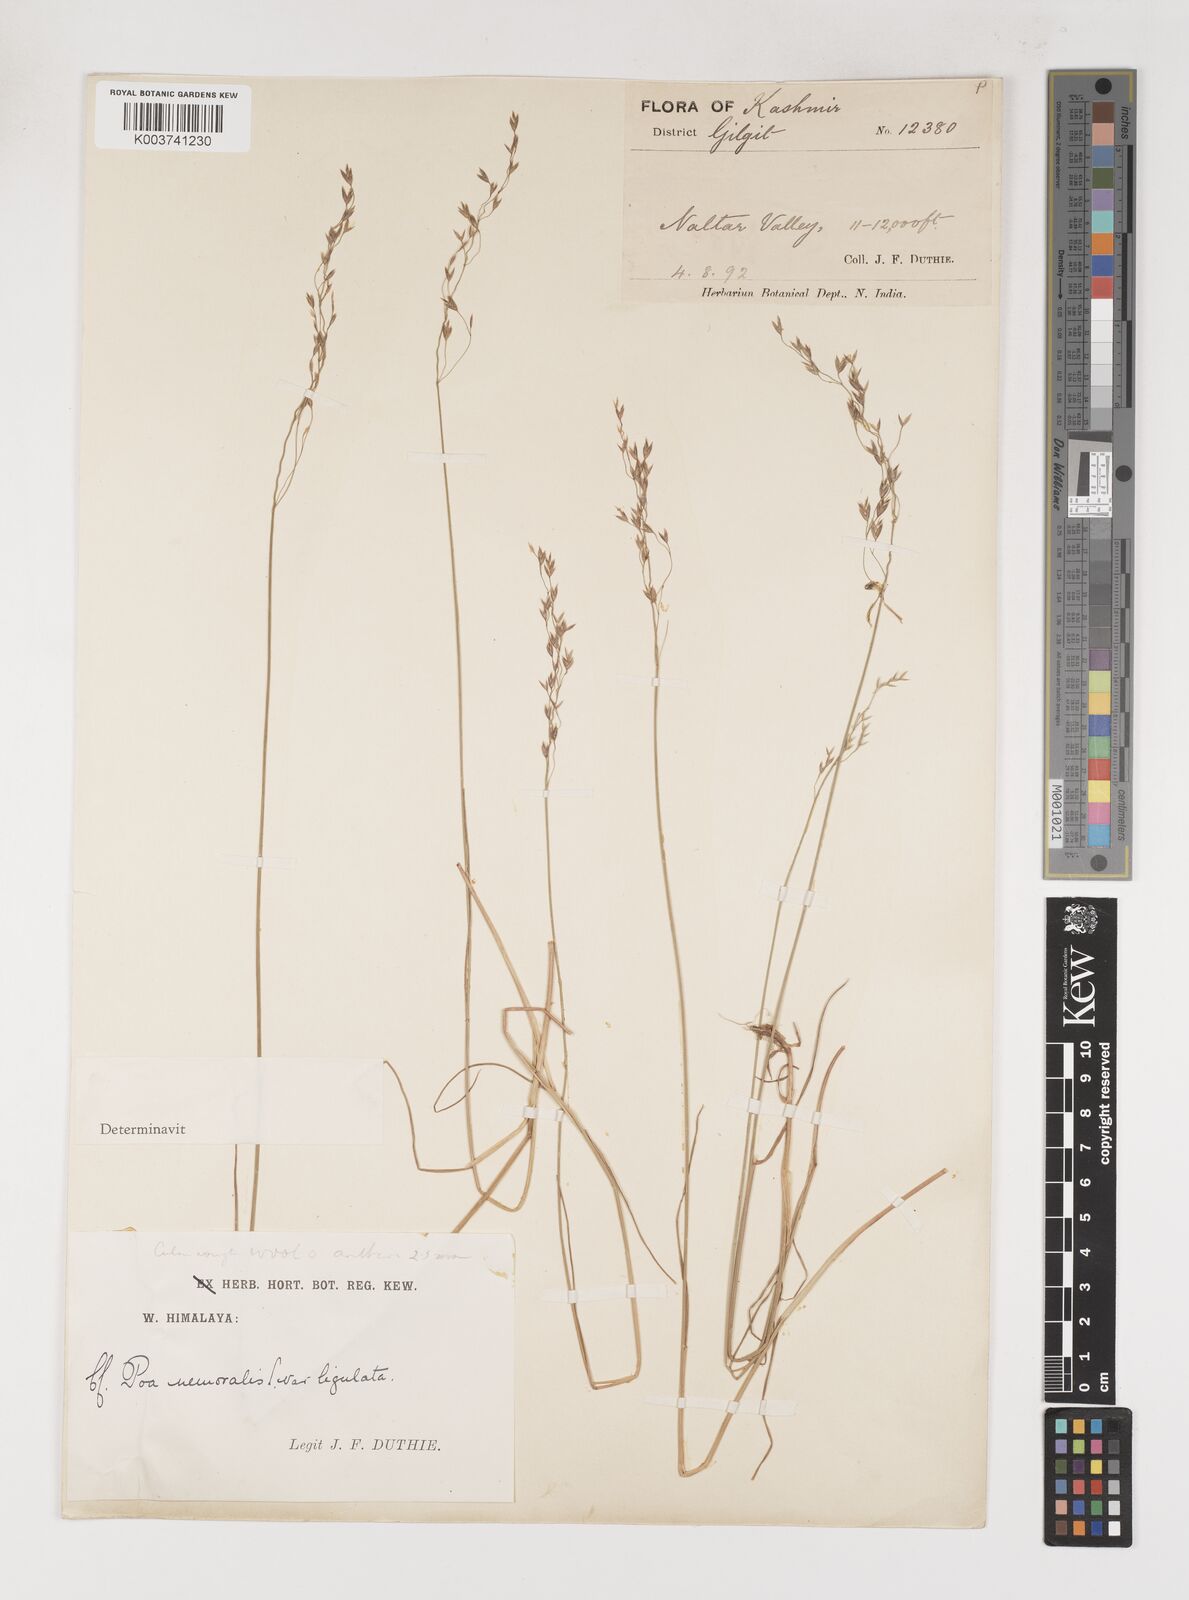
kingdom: Plantae
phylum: Tracheophyta
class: Liliopsida
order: Poales
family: Poaceae
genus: Poa
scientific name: Poa araratica
